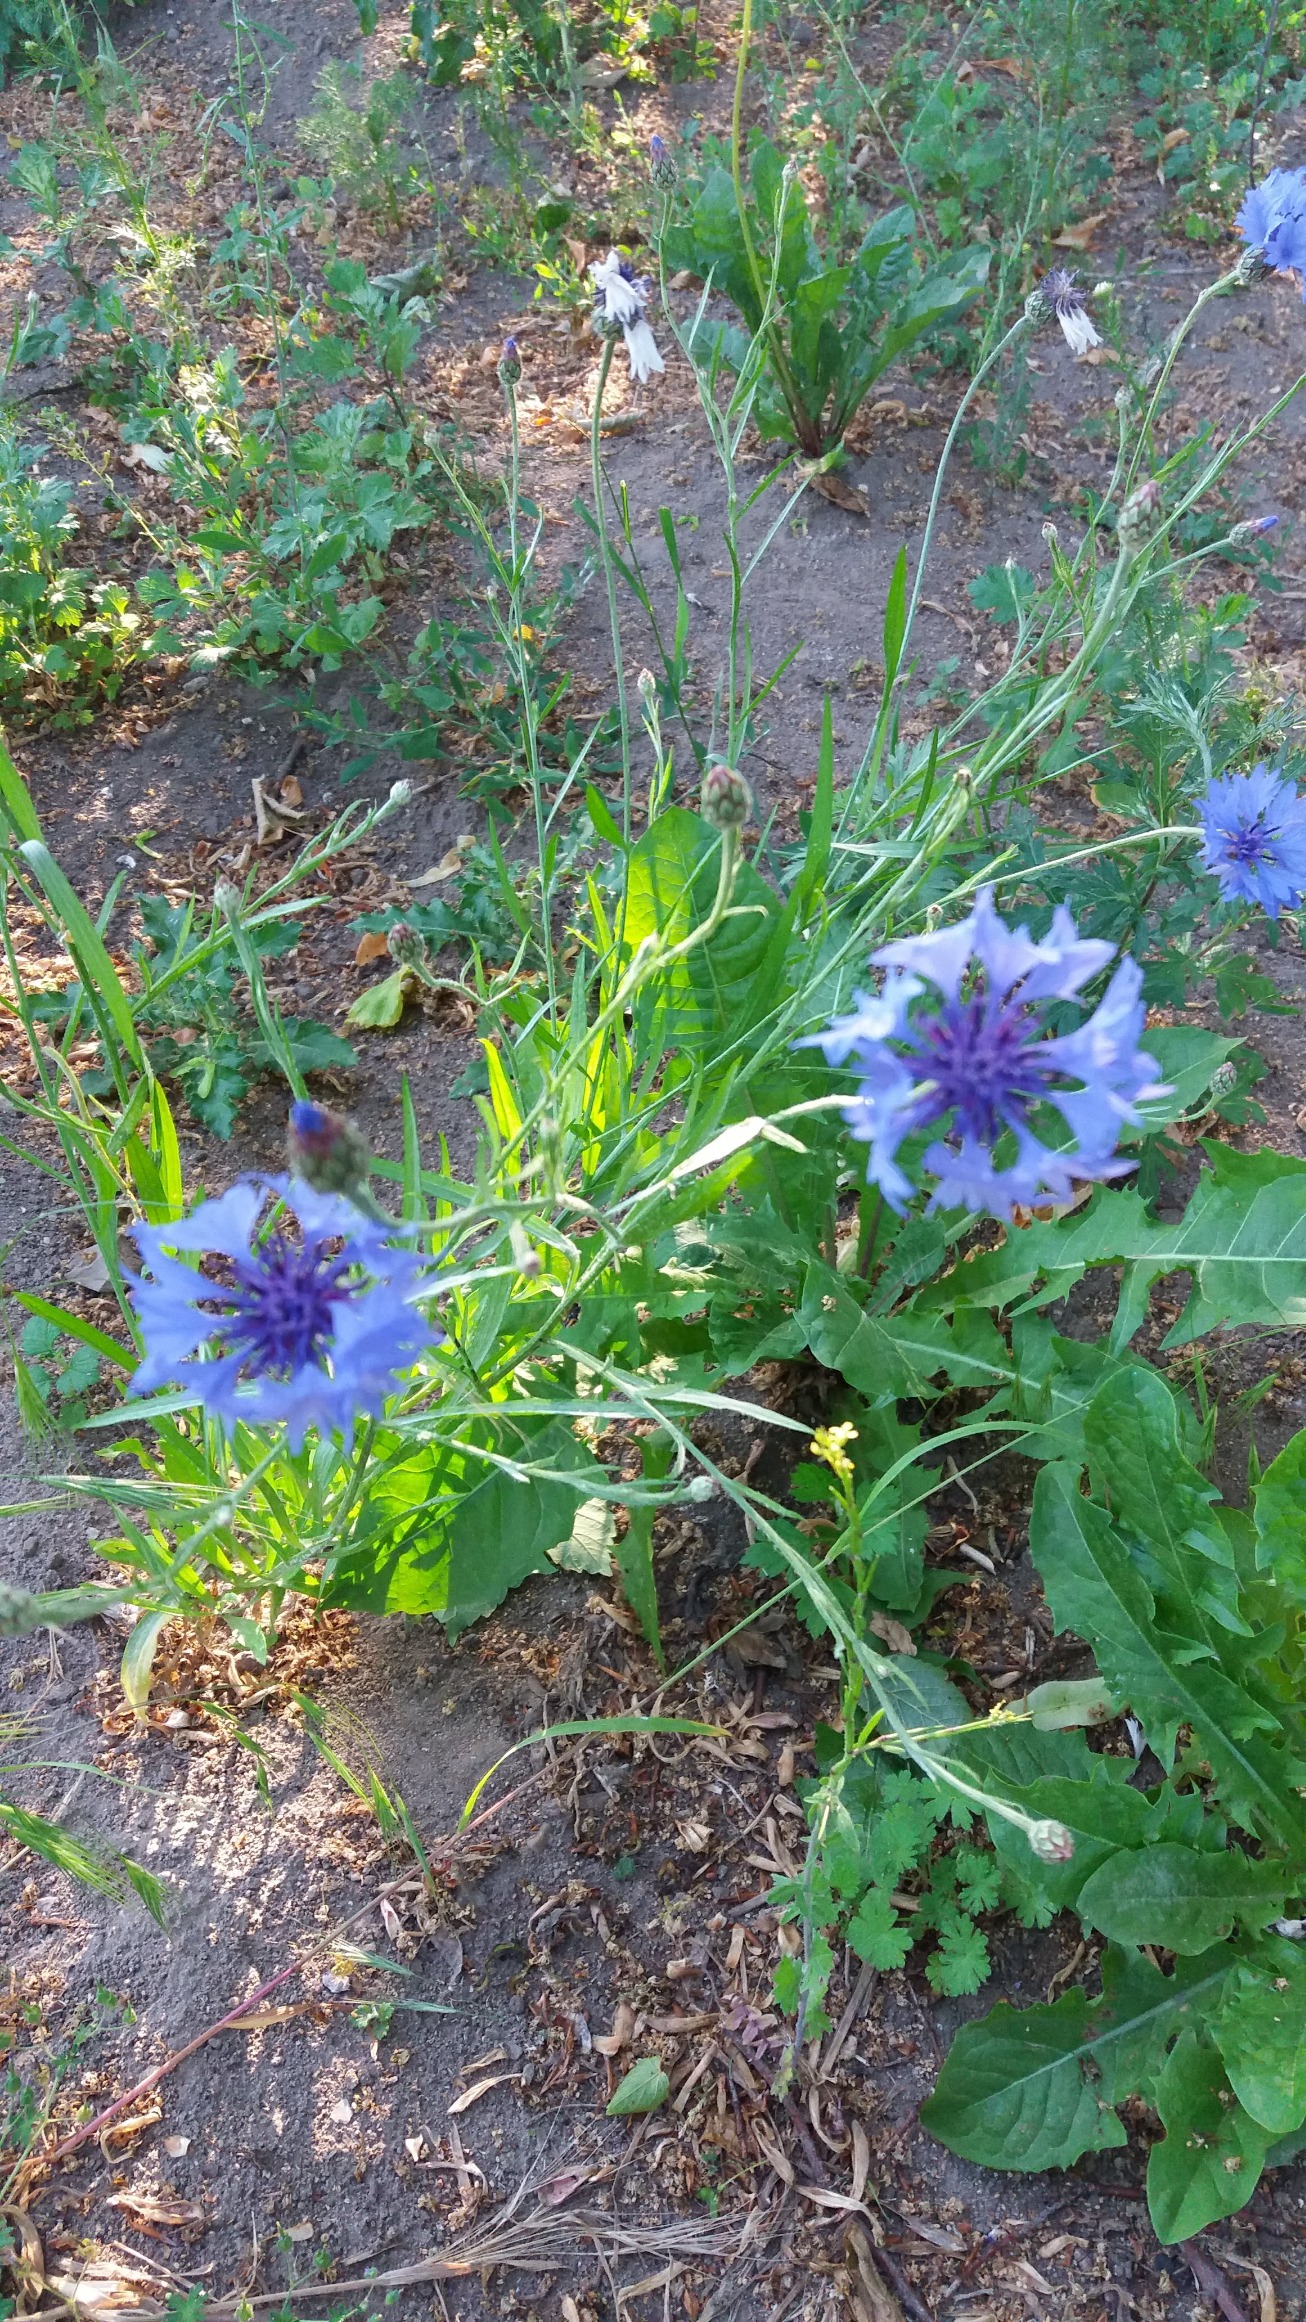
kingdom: Plantae
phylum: Tracheophyta
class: Magnoliopsida
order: Asterales
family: Asteraceae
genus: Centaurea
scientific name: Centaurea cyanus
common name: Kornblomst
